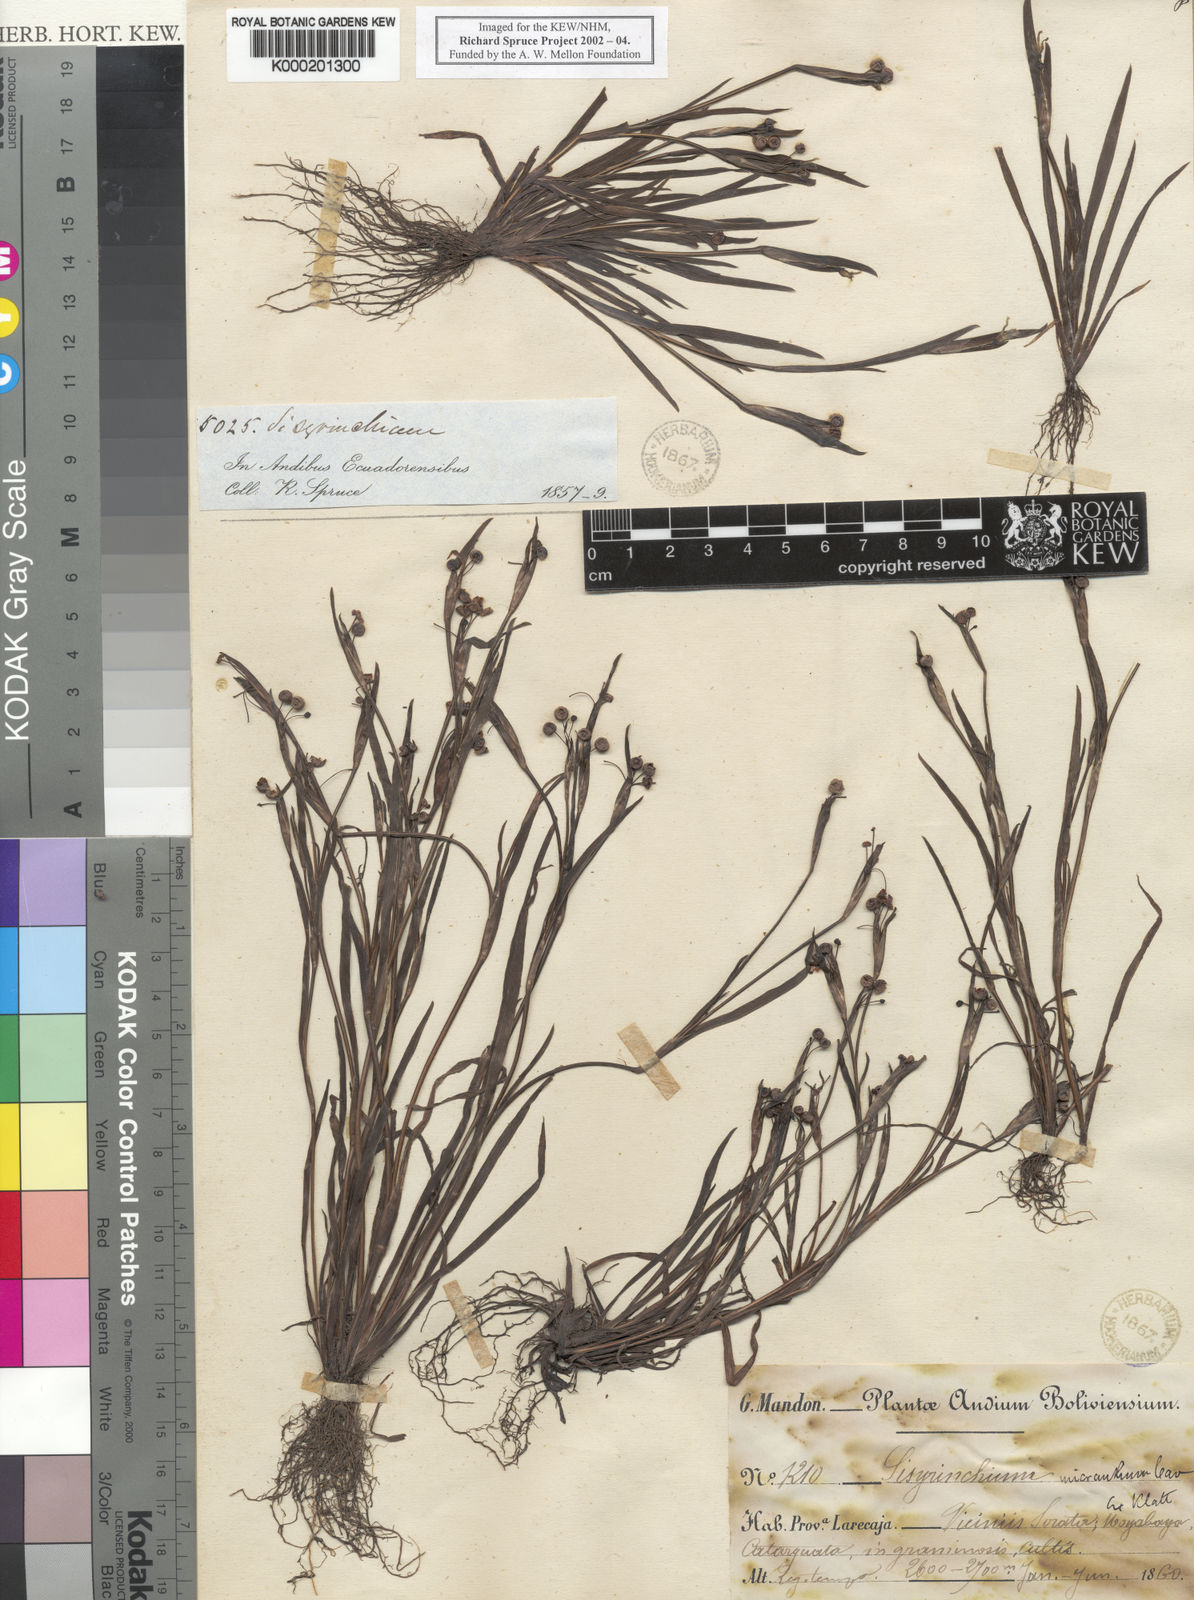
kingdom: Plantae
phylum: Tracheophyta
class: Liliopsida
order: Asparagales
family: Iridaceae
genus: Sisyrinchium
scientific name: Sisyrinchium micranthum
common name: Bermuda pigroot
